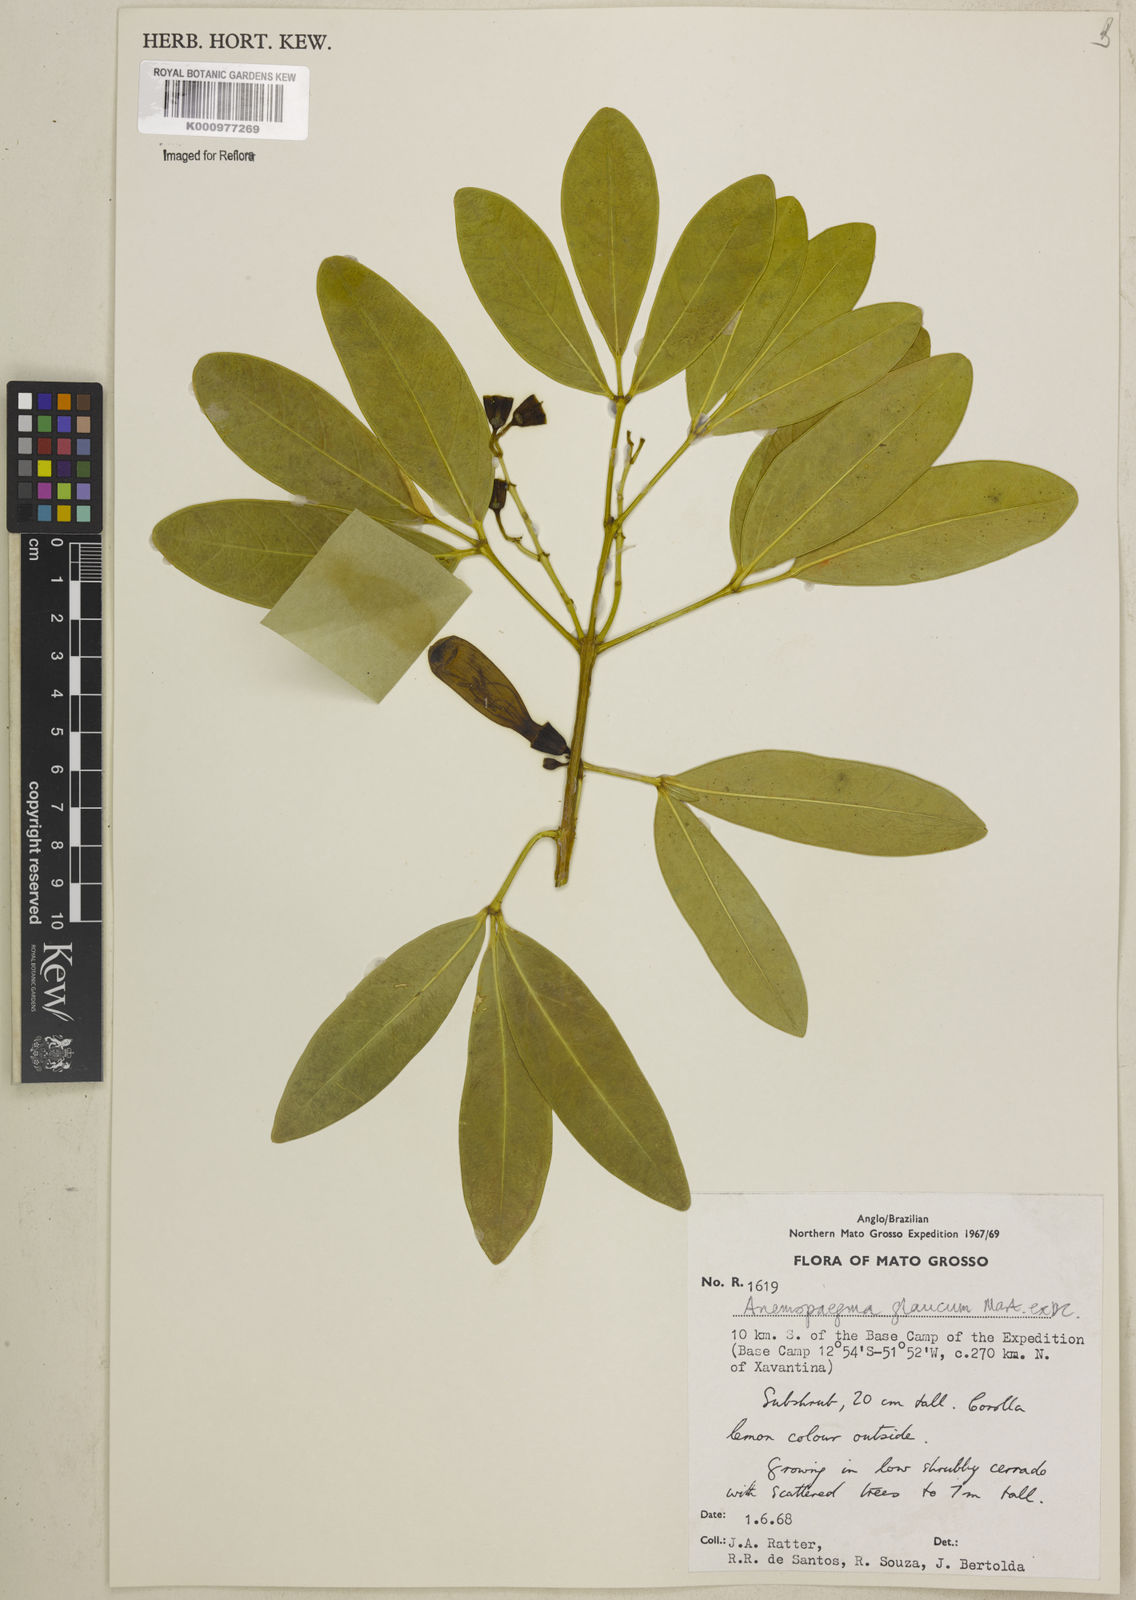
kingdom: Plantae
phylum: Tracheophyta
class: Magnoliopsida
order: Lamiales
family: Bignoniaceae
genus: Anemopaegma
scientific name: Anemopaegma glaucum
